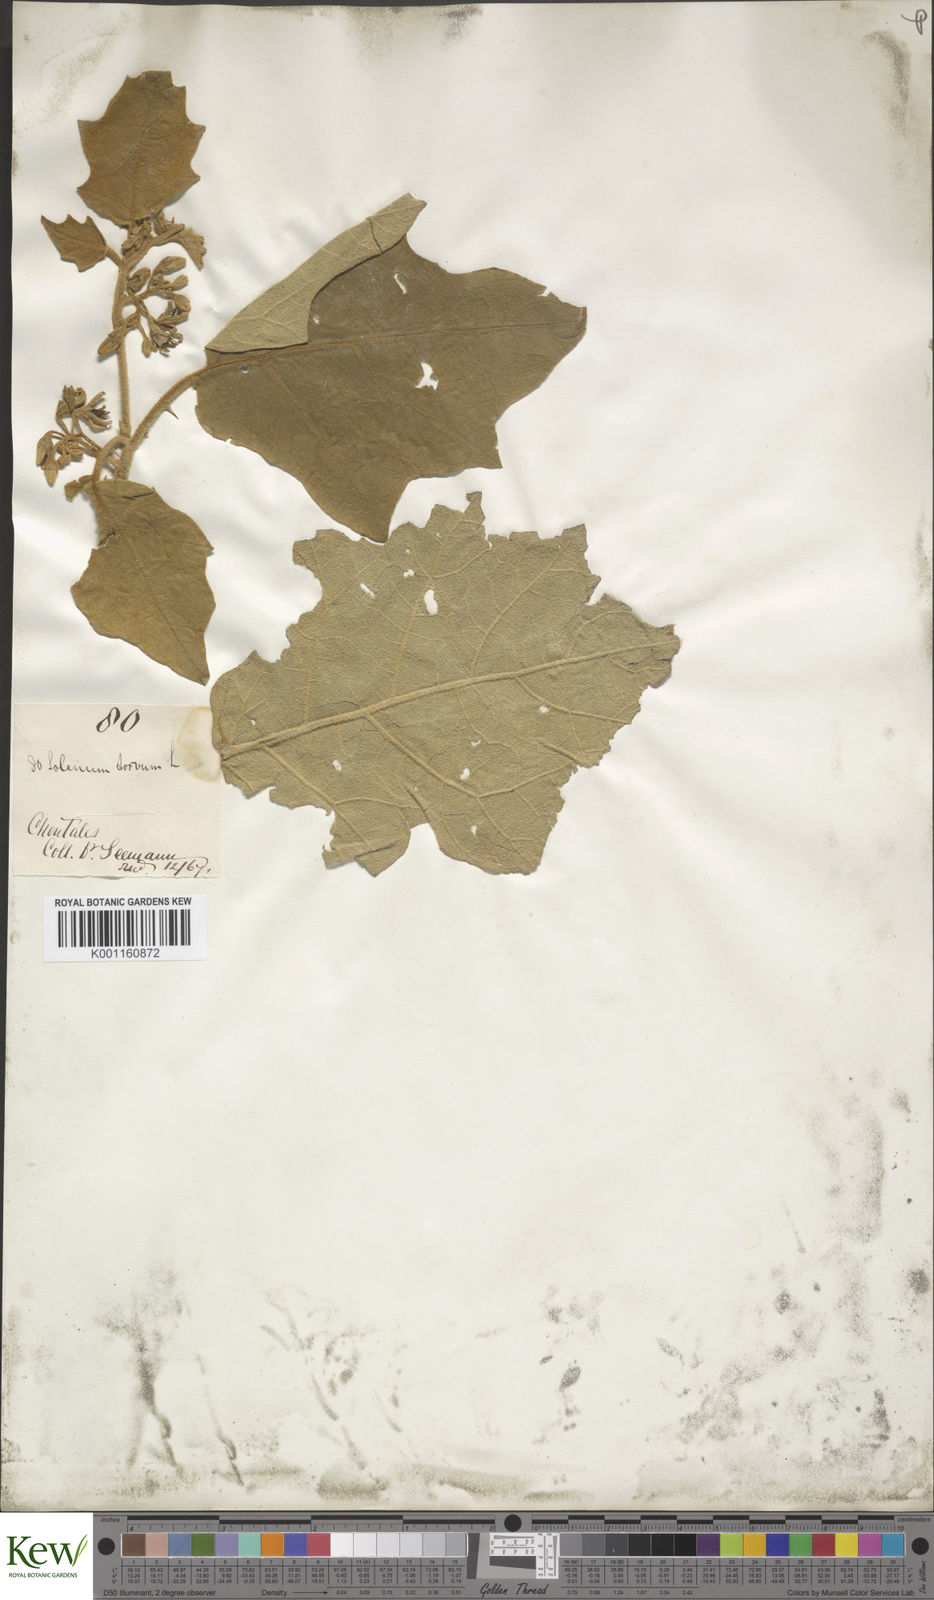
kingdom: Plantae
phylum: Tracheophyta
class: Magnoliopsida
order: Solanales
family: Solanaceae
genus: Solanum
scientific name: Solanum torvum
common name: Turkey berry
